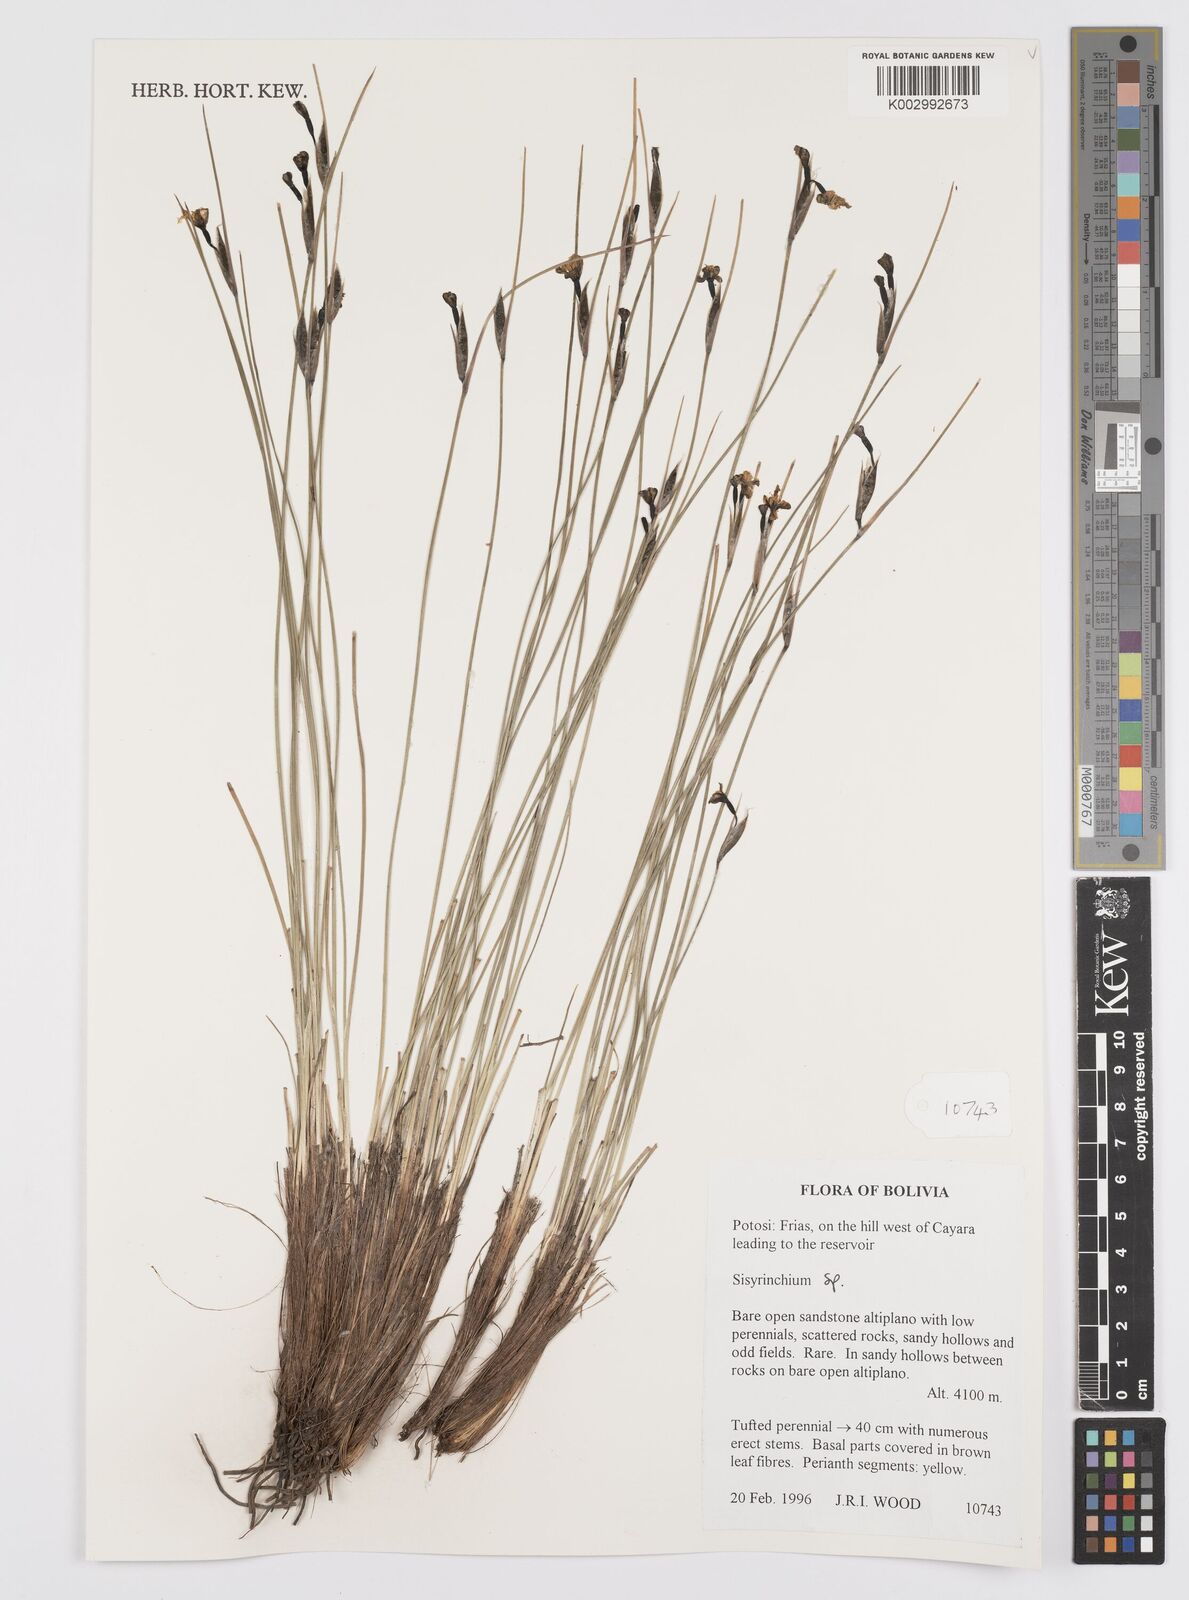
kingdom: Plantae
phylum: Tracheophyta
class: Liliopsida
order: Asparagales
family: Iridaceae
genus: Sisyrinchium
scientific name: Sisyrinchium
